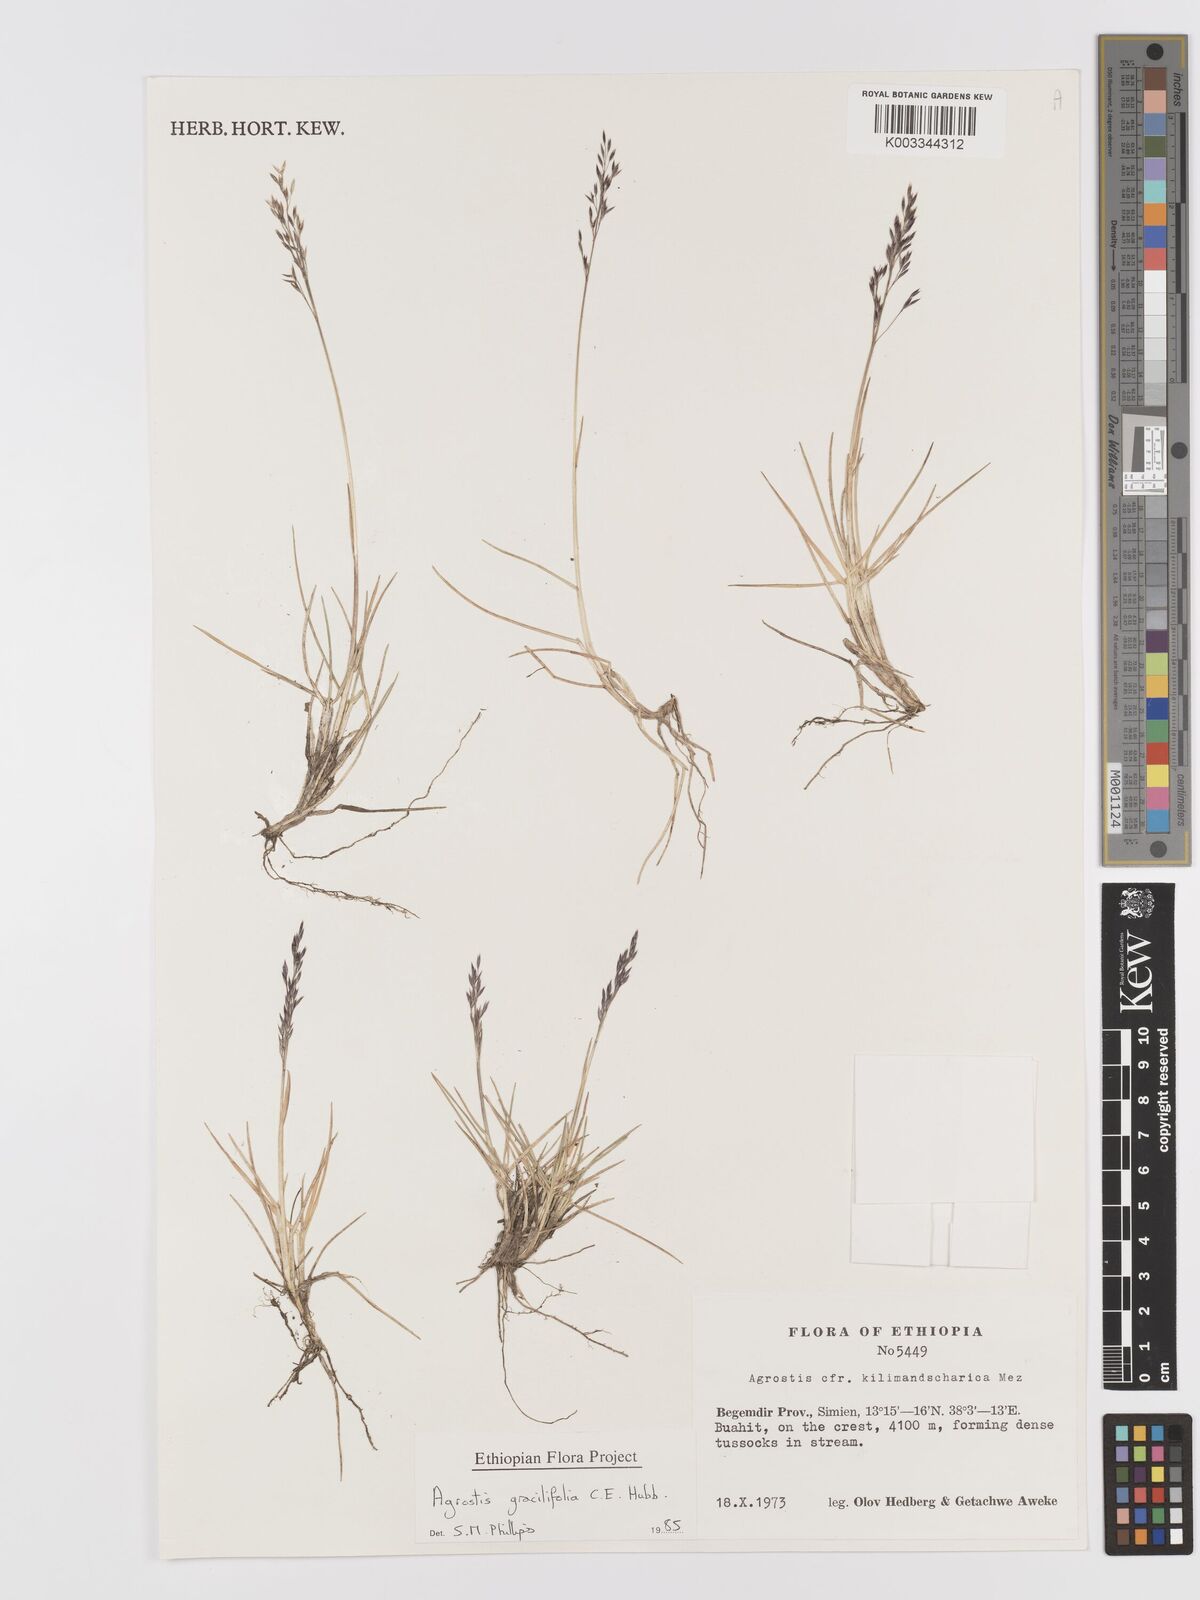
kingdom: Plantae
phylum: Tracheophyta
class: Liliopsida
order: Poales
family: Poaceae
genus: Agrostis
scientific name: Agrostis gracilifolia
